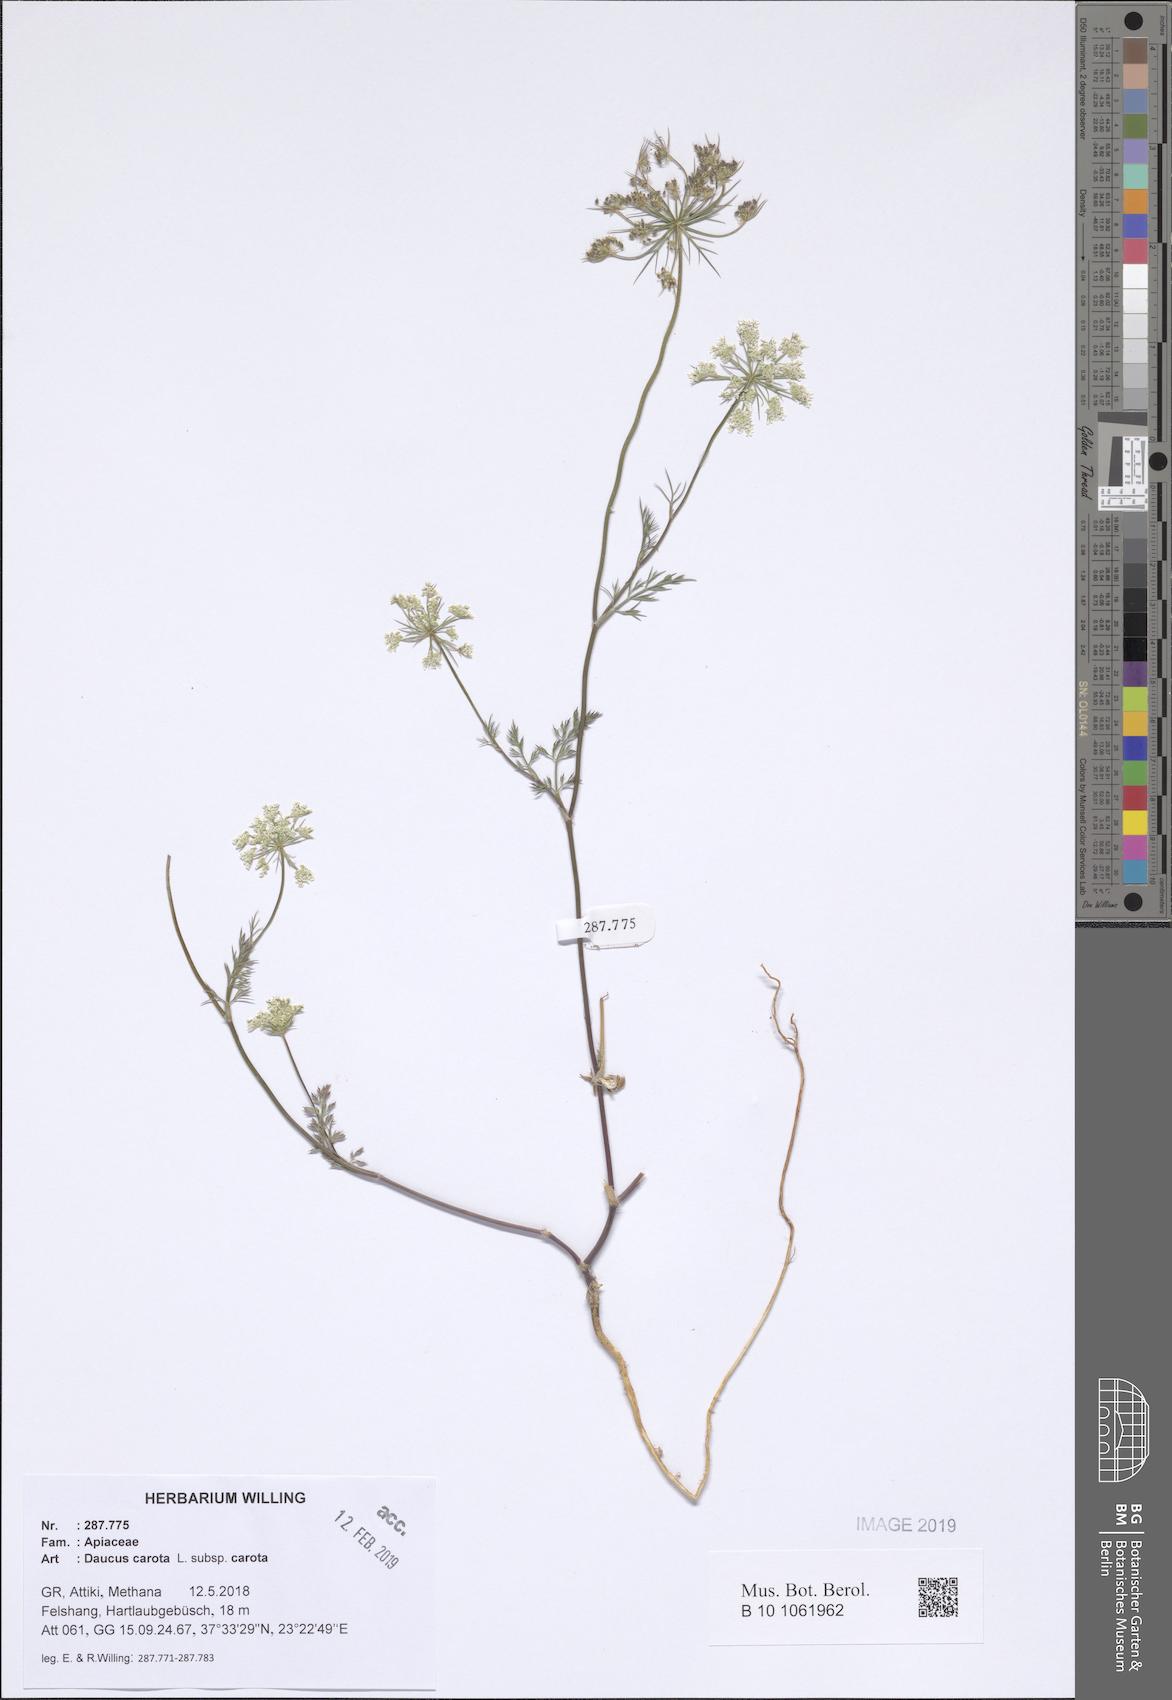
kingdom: Plantae
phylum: Tracheophyta
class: Magnoliopsida
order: Apiales
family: Apiaceae
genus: Daucus
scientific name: Daucus carota
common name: Wild carrot
